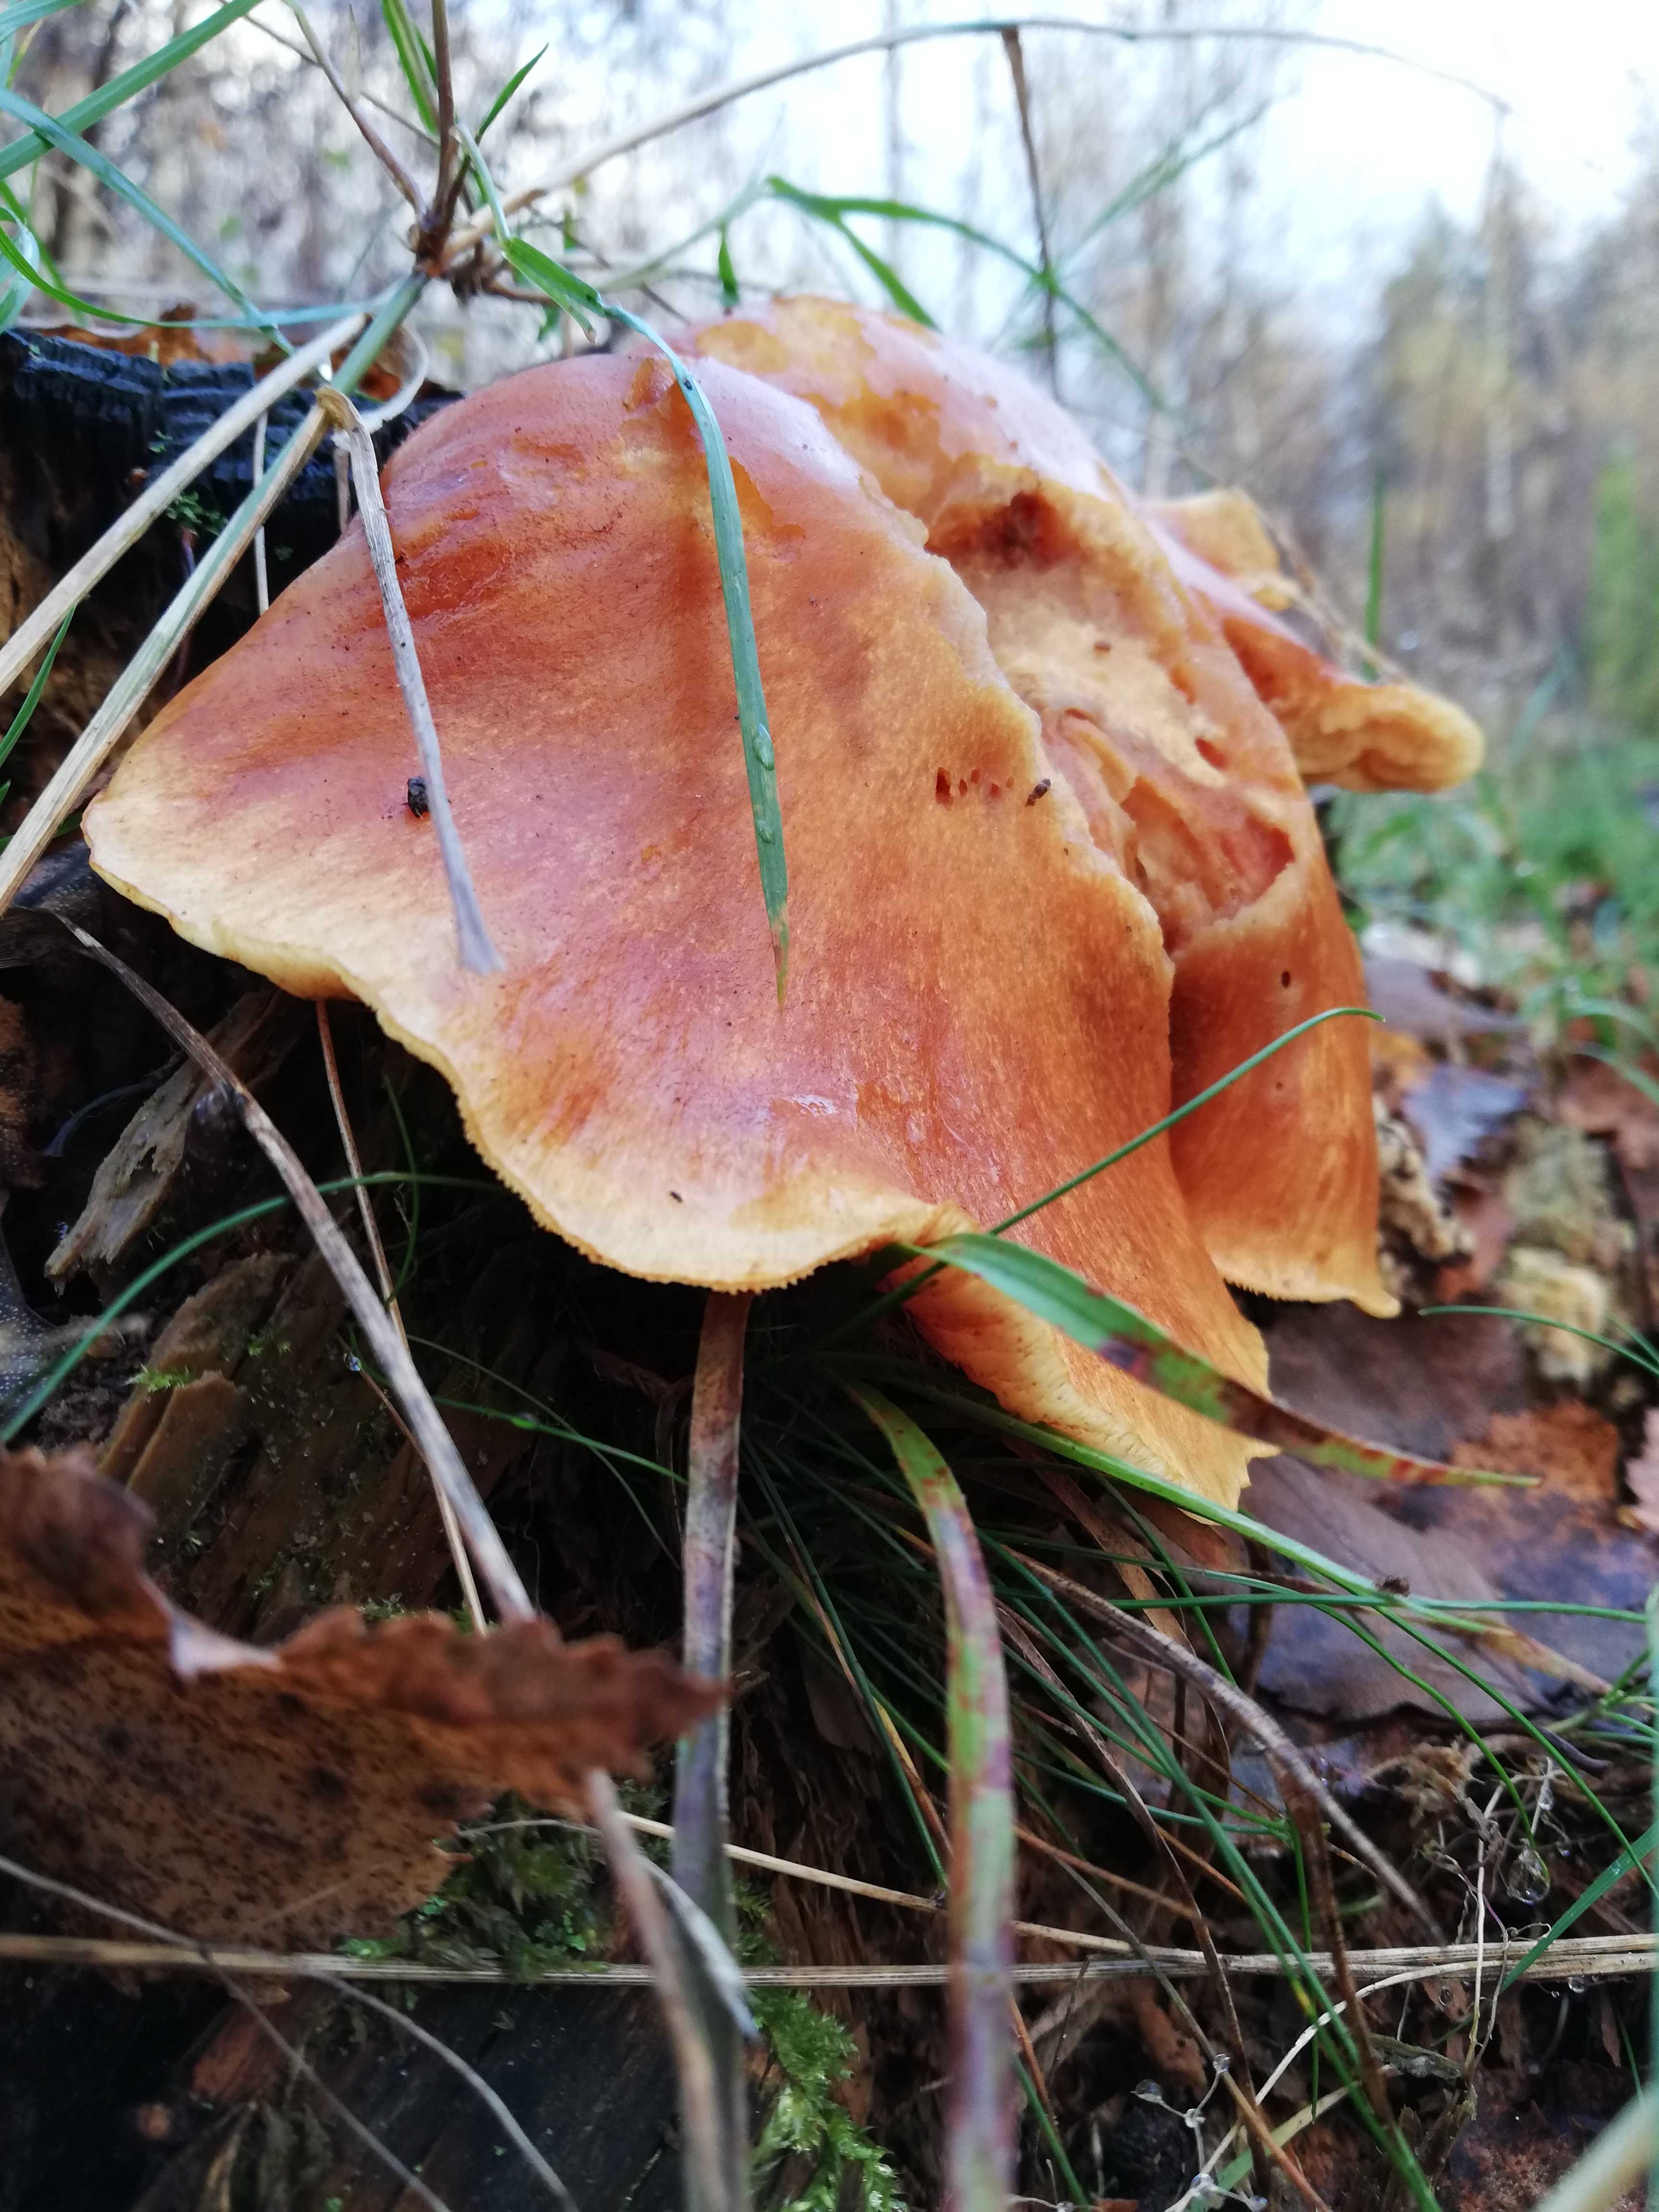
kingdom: Fungi
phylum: Basidiomycota
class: Agaricomycetes
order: Agaricales
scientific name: Agaricales
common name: champignonordenen
